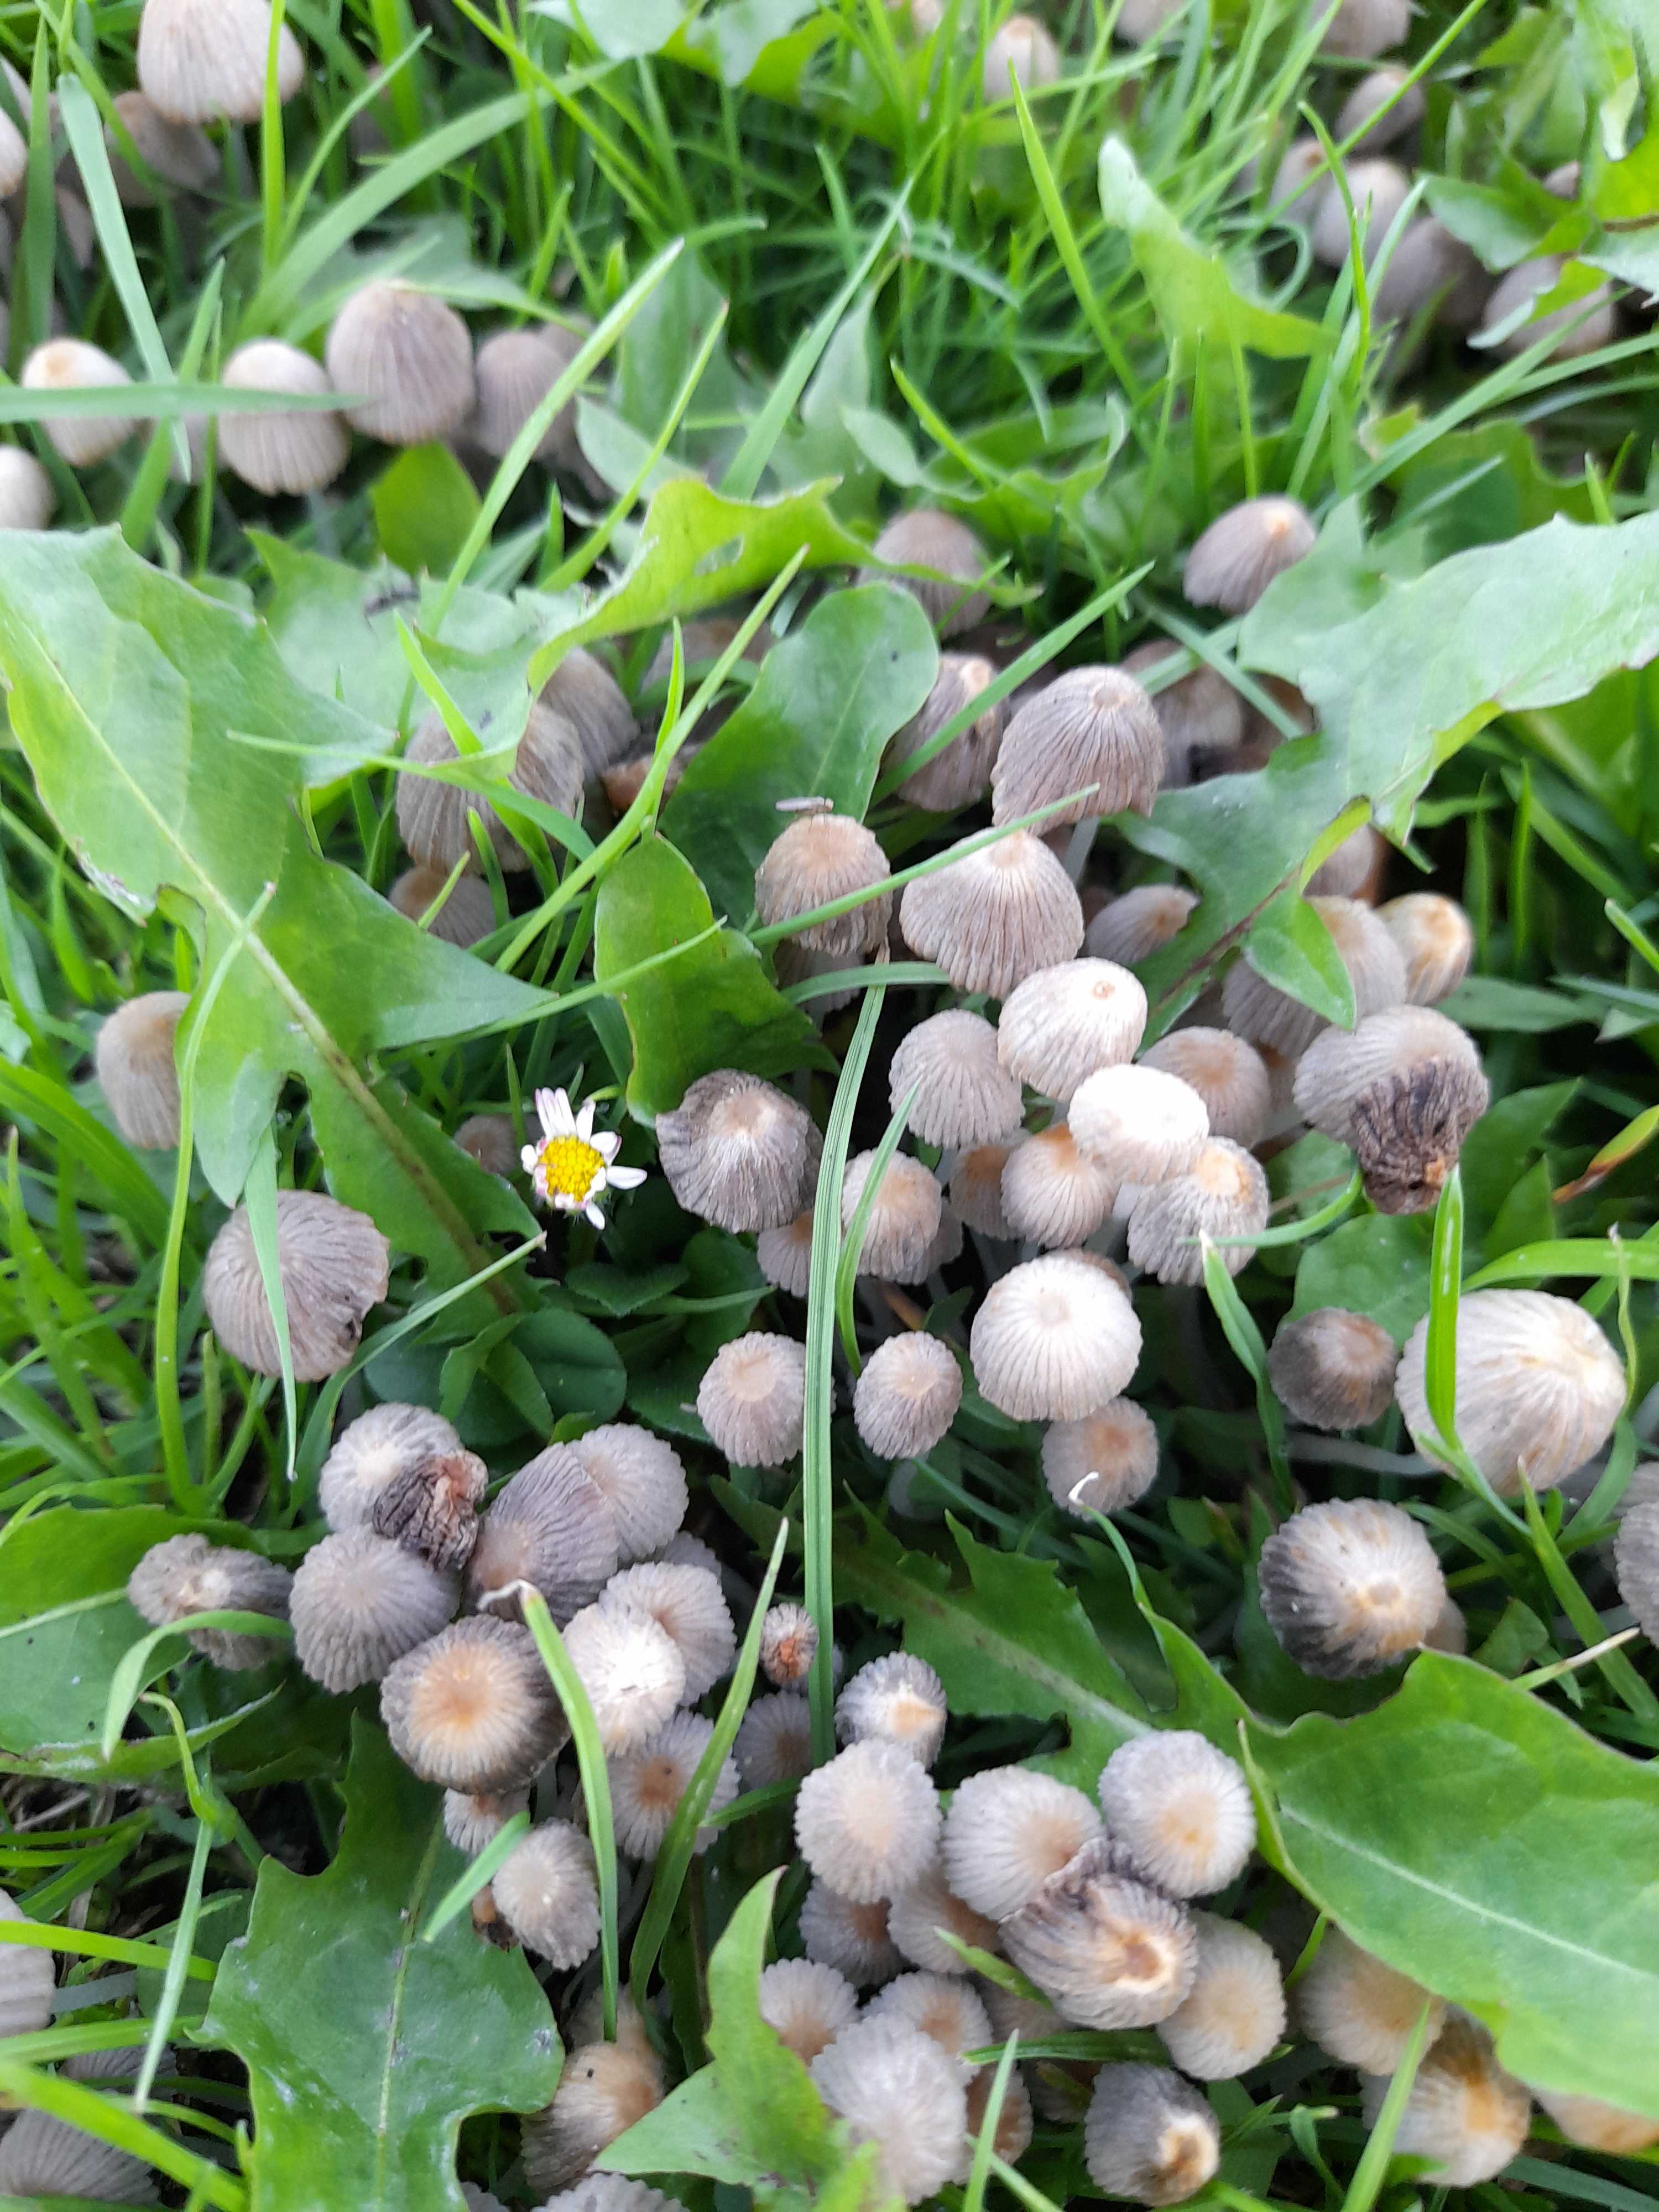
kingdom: Fungi
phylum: Basidiomycota
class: Agaricomycetes
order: Agaricales
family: Psathyrellaceae
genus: Coprinellus
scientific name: Coprinellus disseminatus
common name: bredsået blækhat
